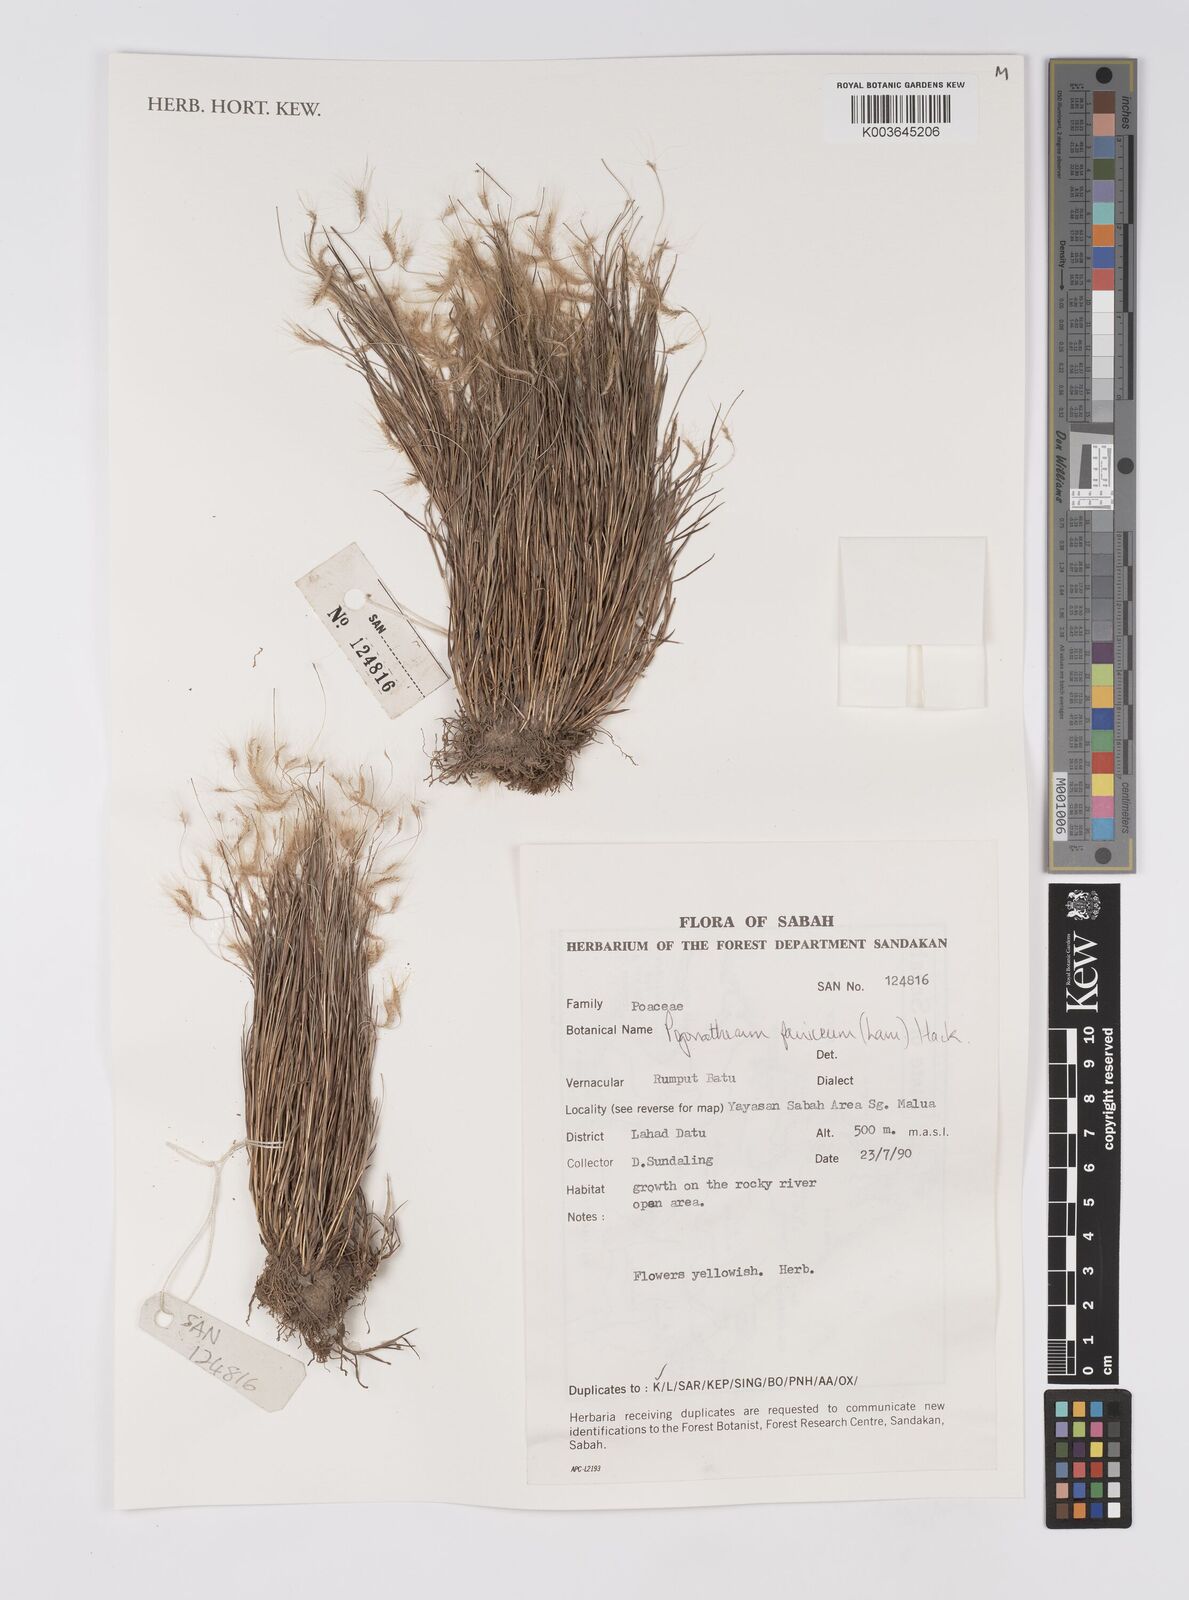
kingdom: Plantae
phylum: Tracheophyta
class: Liliopsida
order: Poales
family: Poaceae
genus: Pogonatherum
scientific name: Pogonatherum paniceum
